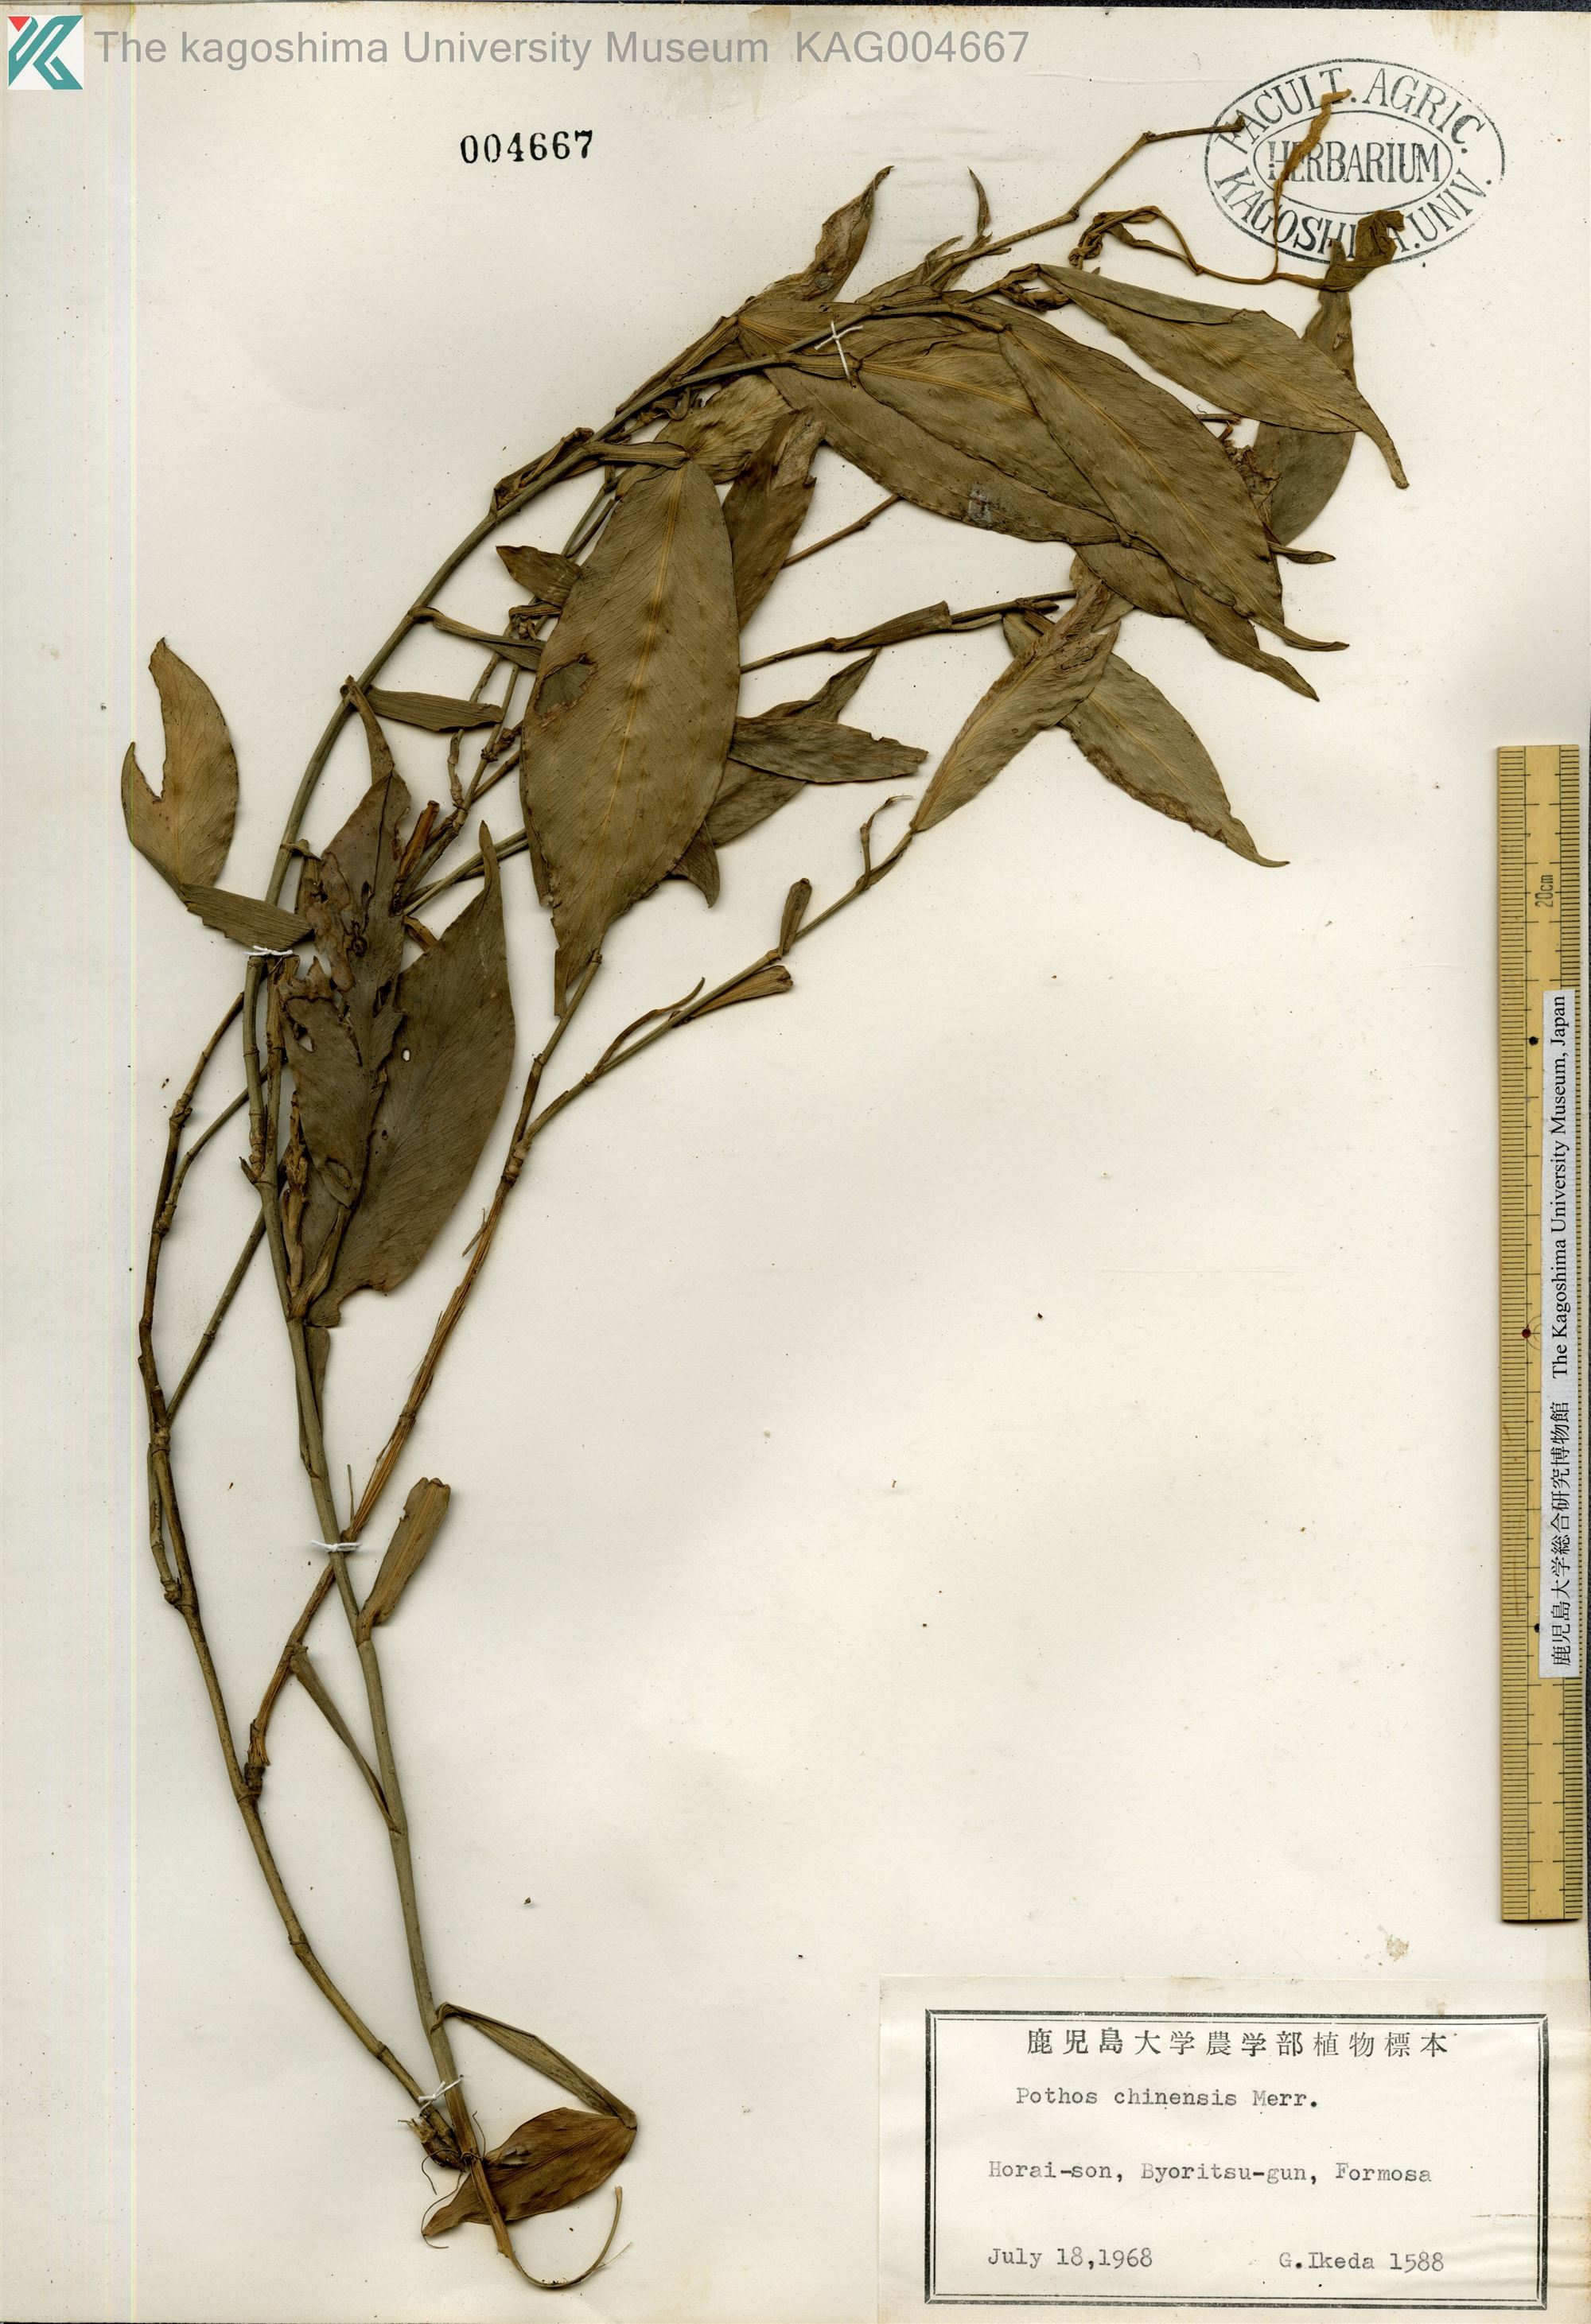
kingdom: Plantae
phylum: Tracheophyta
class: Liliopsida
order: Alismatales
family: Araceae
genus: Pothos
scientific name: Pothos chinensis
